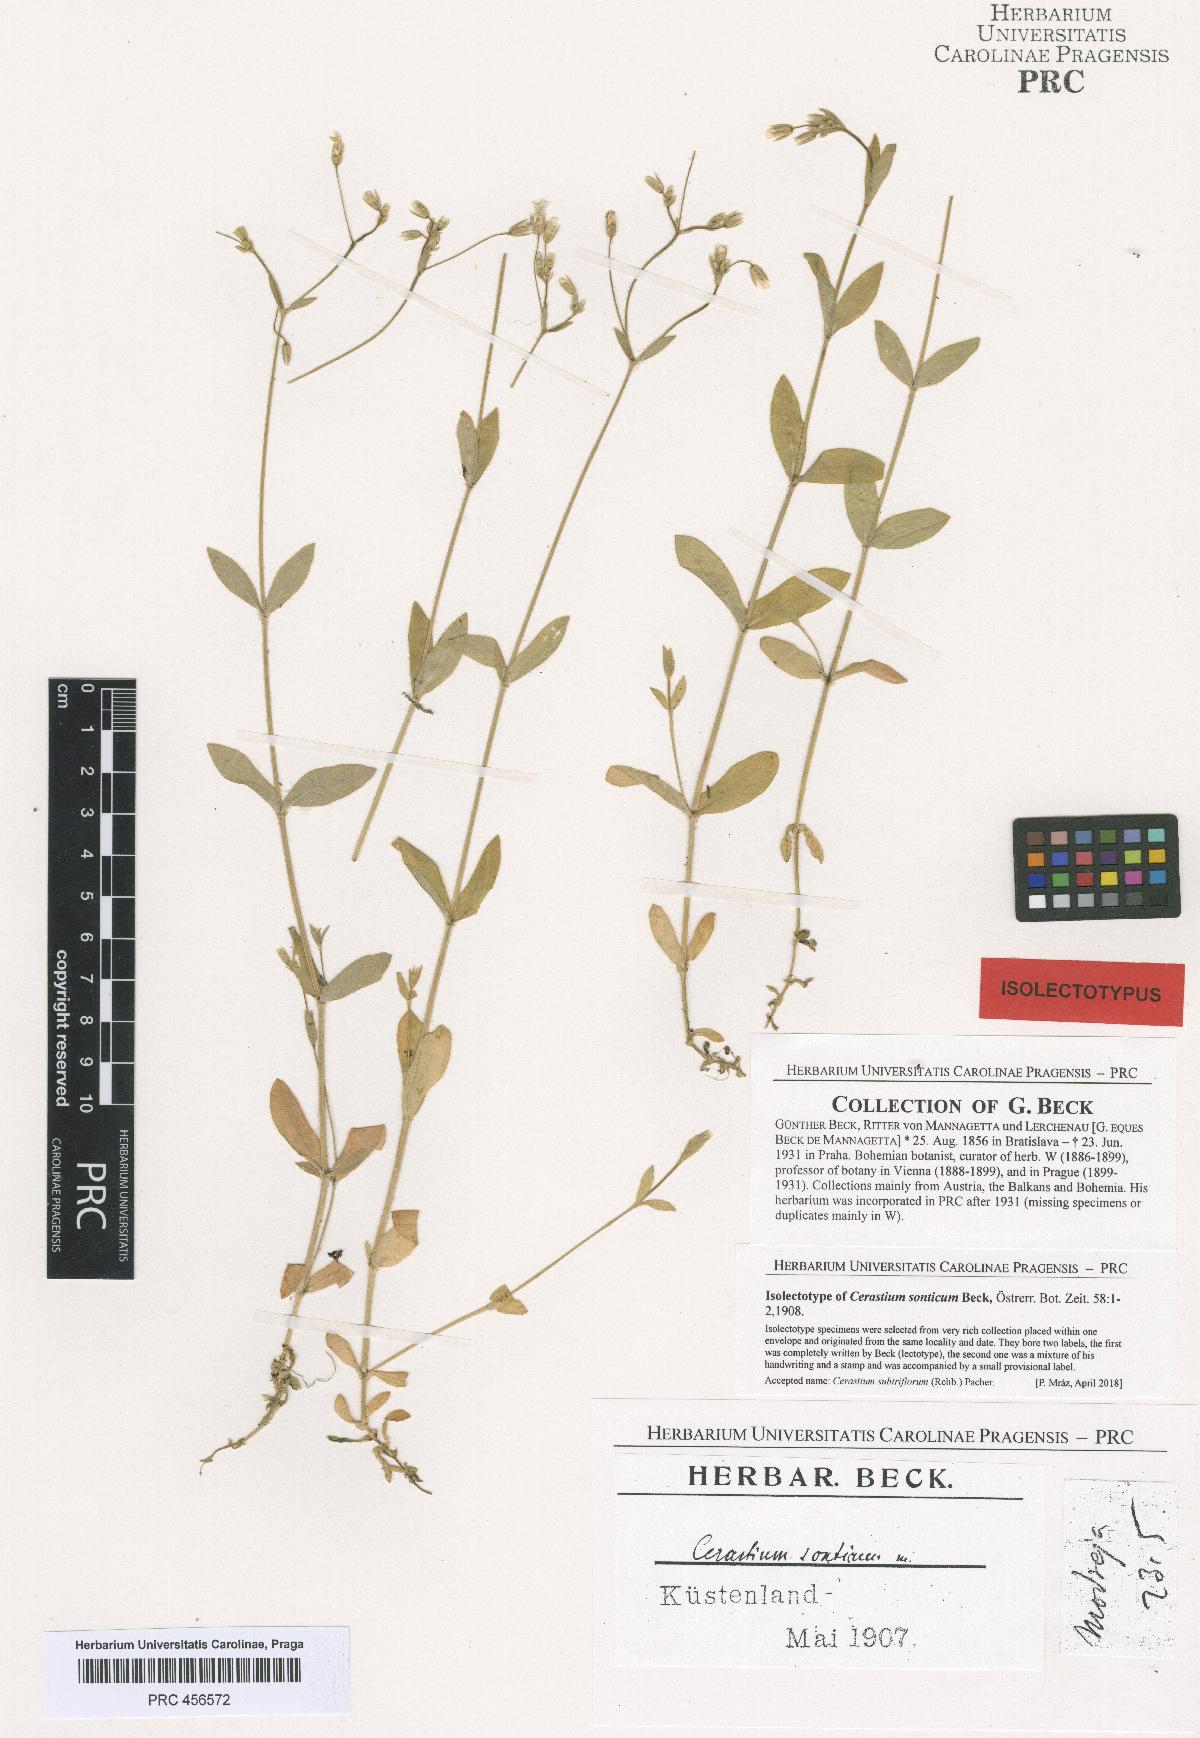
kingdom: Plantae
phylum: Tracheophyta
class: Magnoliopsida
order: Caryophyllales
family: Caryophyllaceae
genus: Cerastium
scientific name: Cerastium subtriflorum
